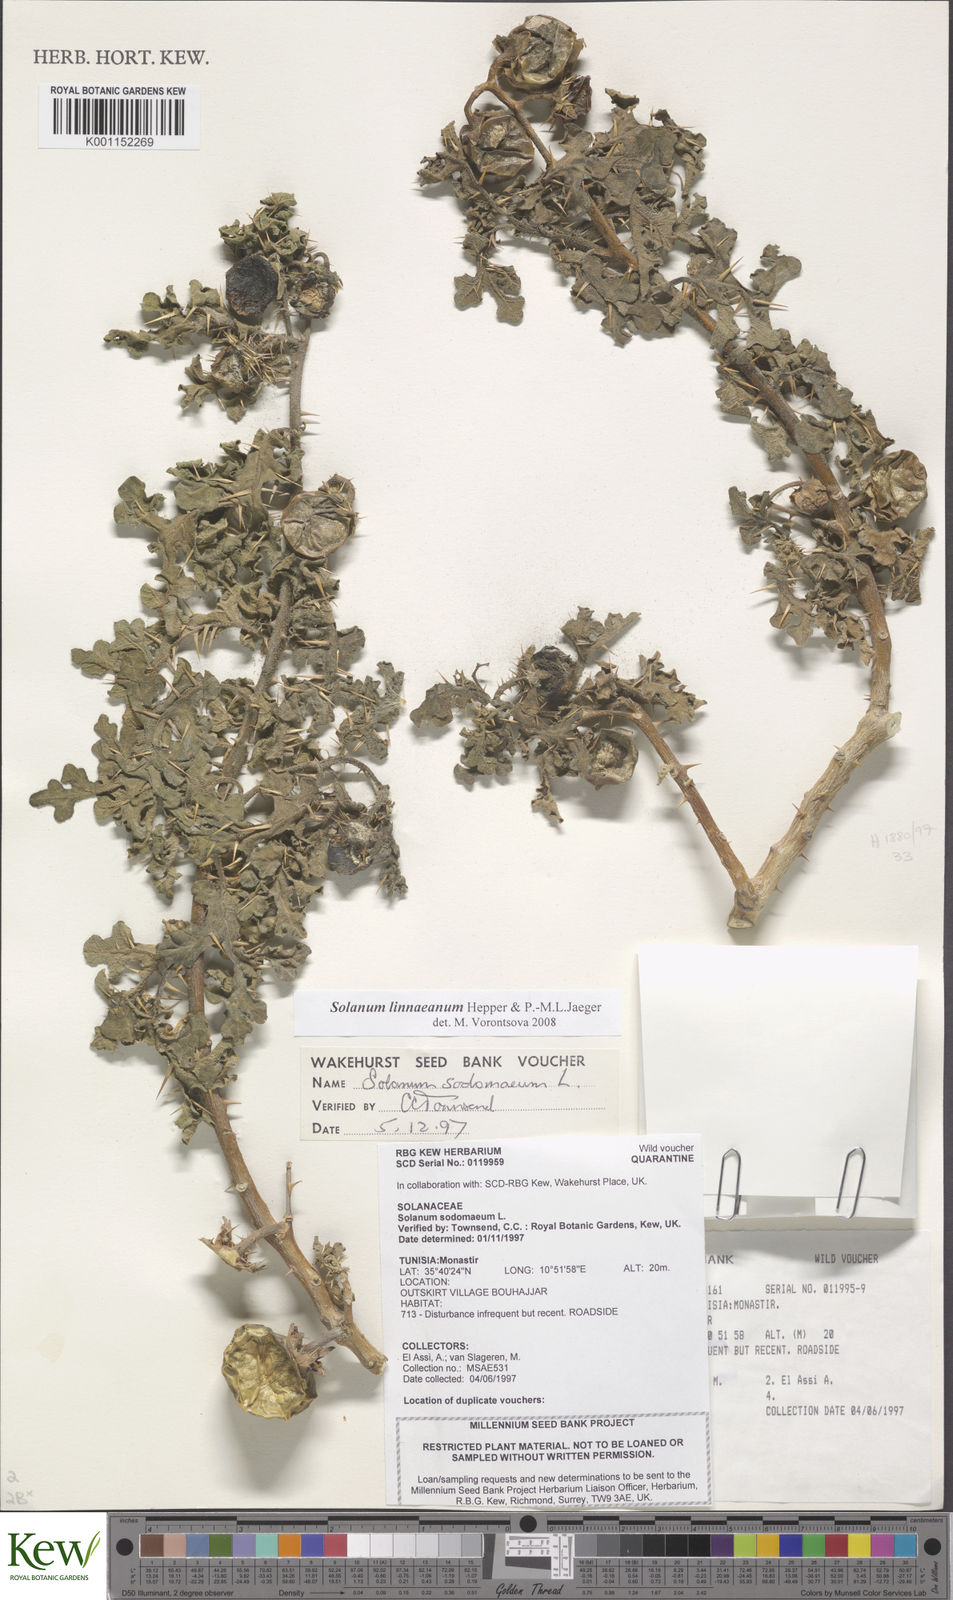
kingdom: Plantae
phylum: Tracheophyta
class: Magnoliopsida
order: Solanales
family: Solanaceae
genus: Solanum
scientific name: Solanum linnaeanum
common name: Nightshade
